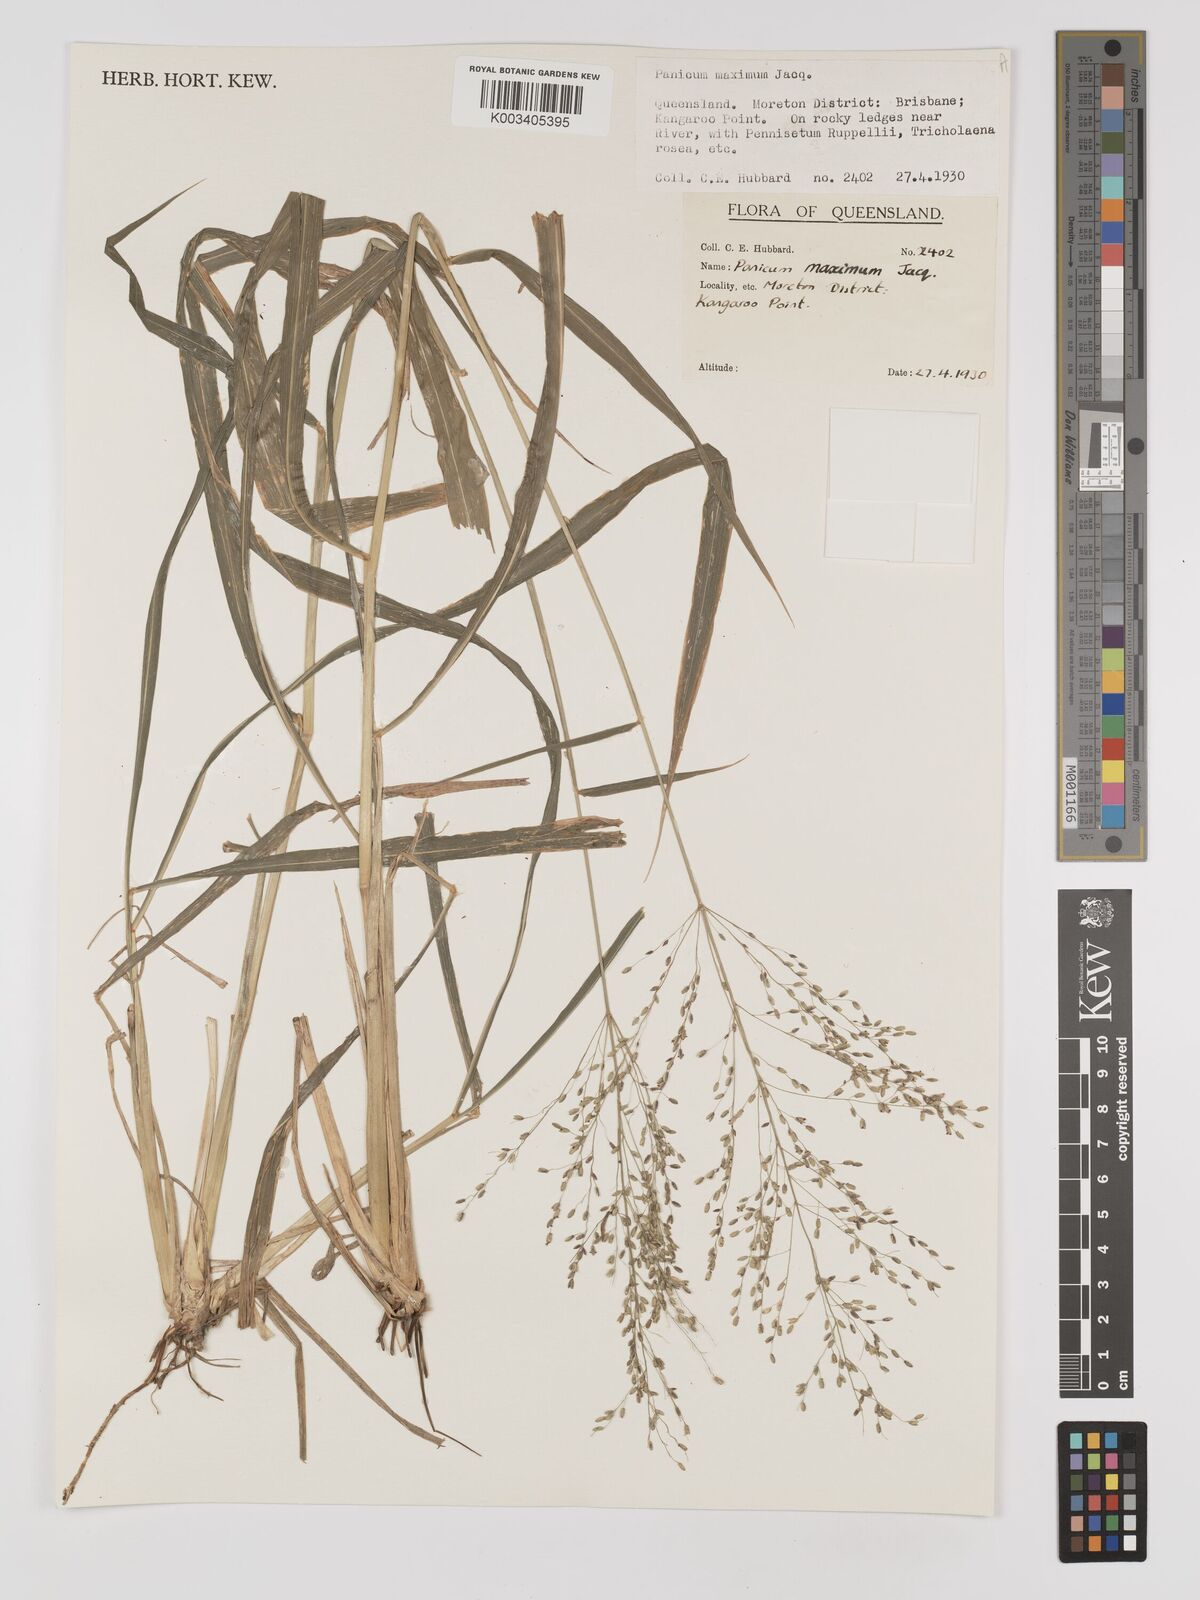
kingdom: Plantae
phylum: Tracheophyta
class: Liliopsida
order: Poales
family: Poaceae
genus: Megathyrsus
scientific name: Megathyrsus maximus
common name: Guineagrass
